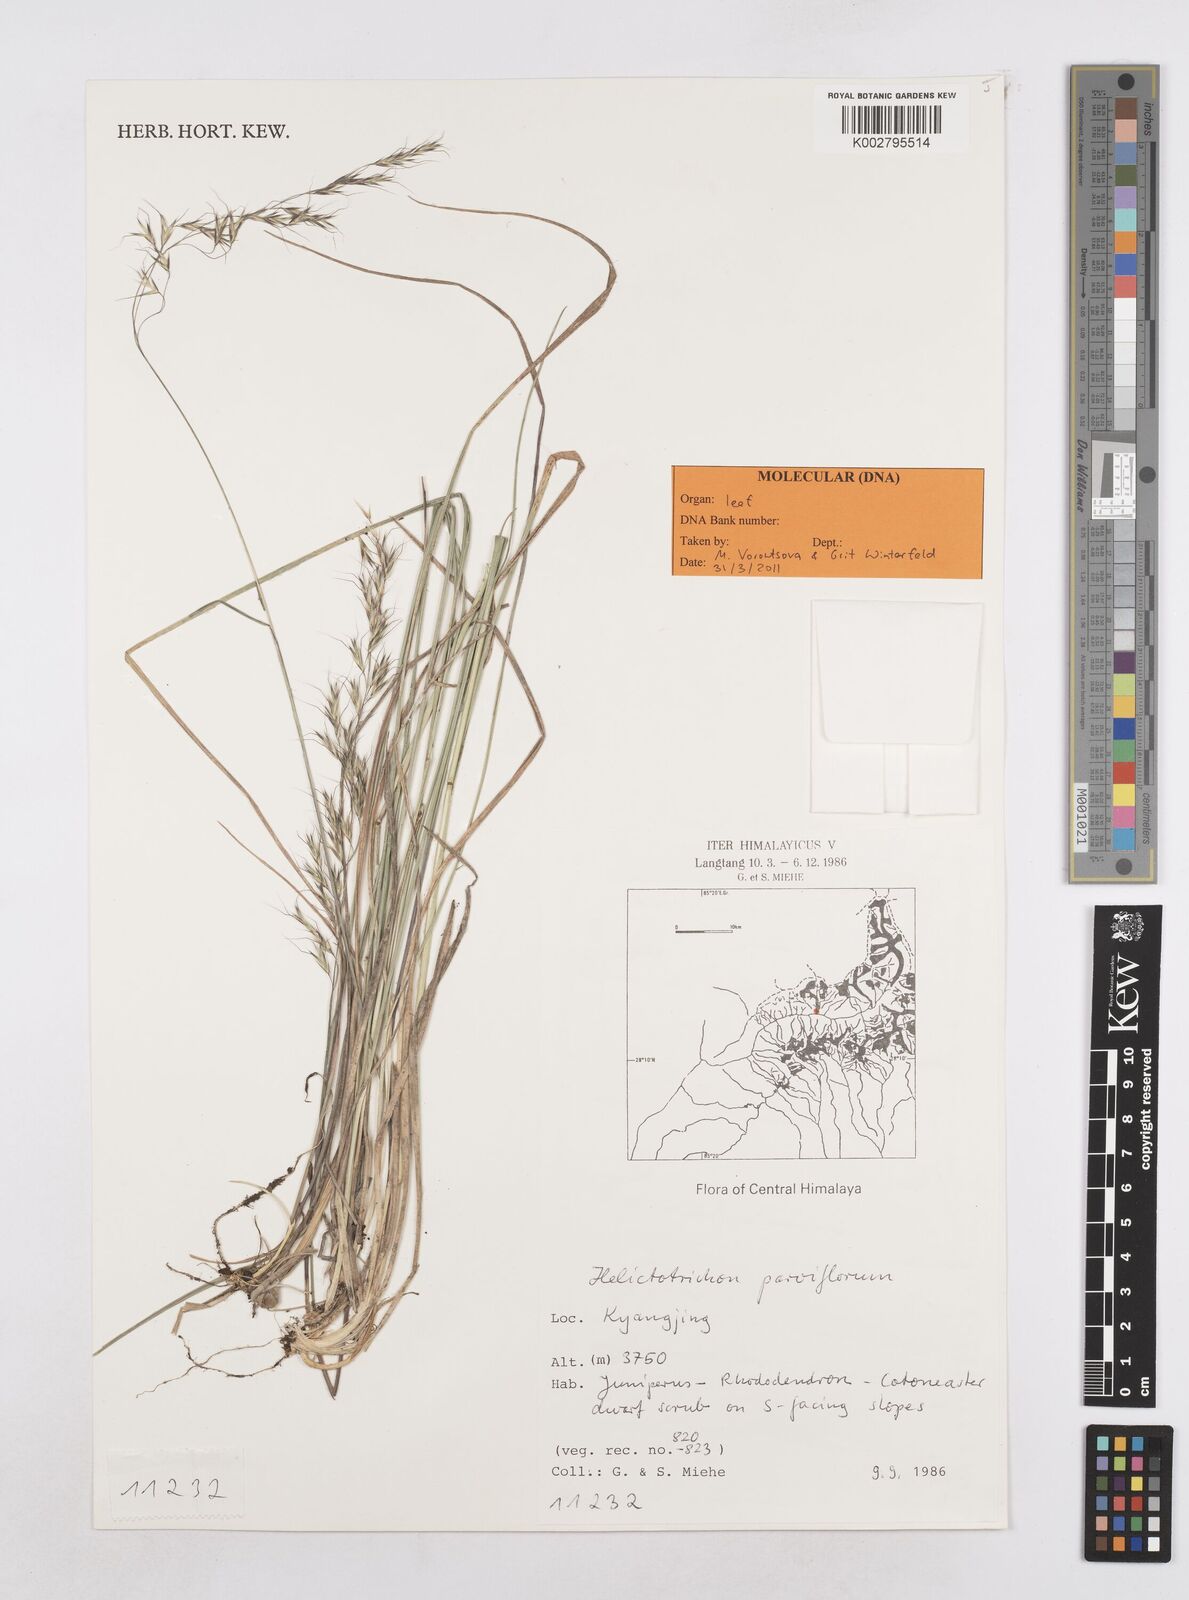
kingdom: Plantae
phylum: Tracheophyta
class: Liliopsida
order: Poales
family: Poaceae
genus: Trisetopsis
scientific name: Trisetopsis junghuhnii
